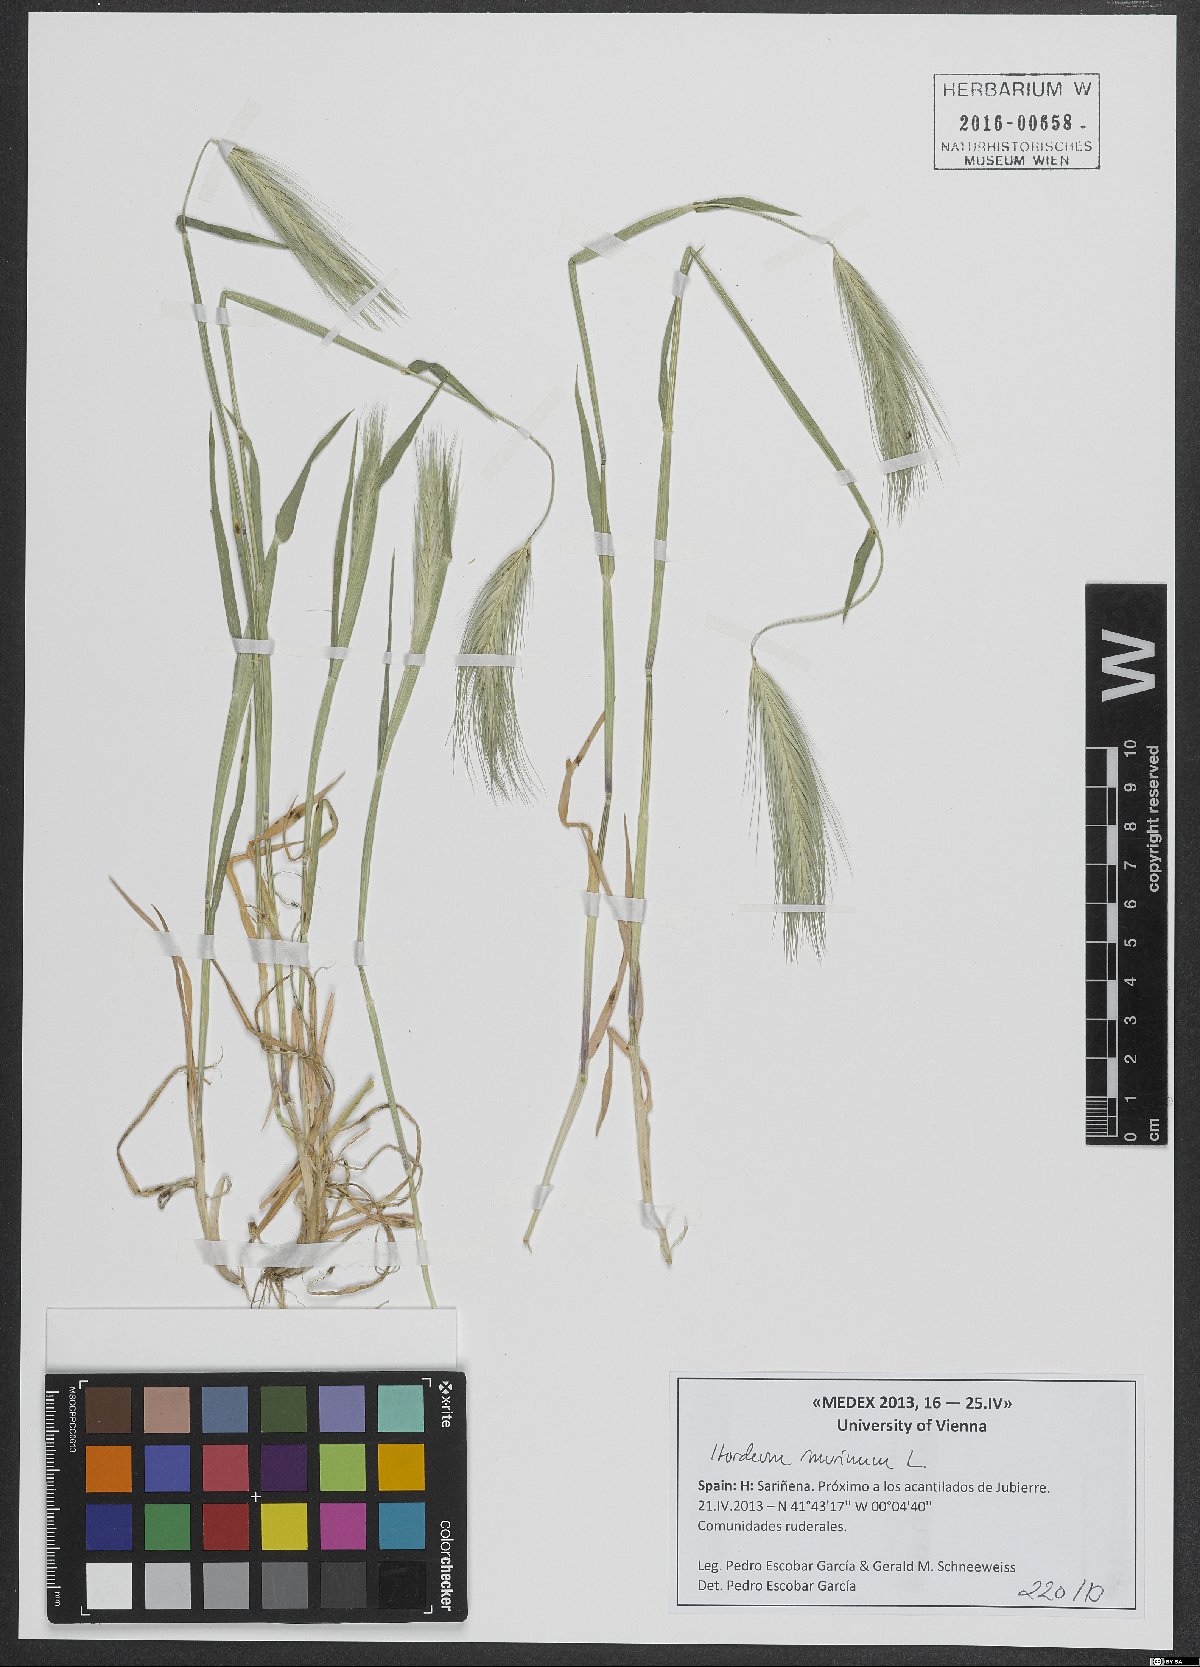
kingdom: Plantae
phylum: Tracheophyta
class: Liliopsida
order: Poales
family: Poaceae
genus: Hordeum
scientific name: Hordeum murinum
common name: Wall barley
